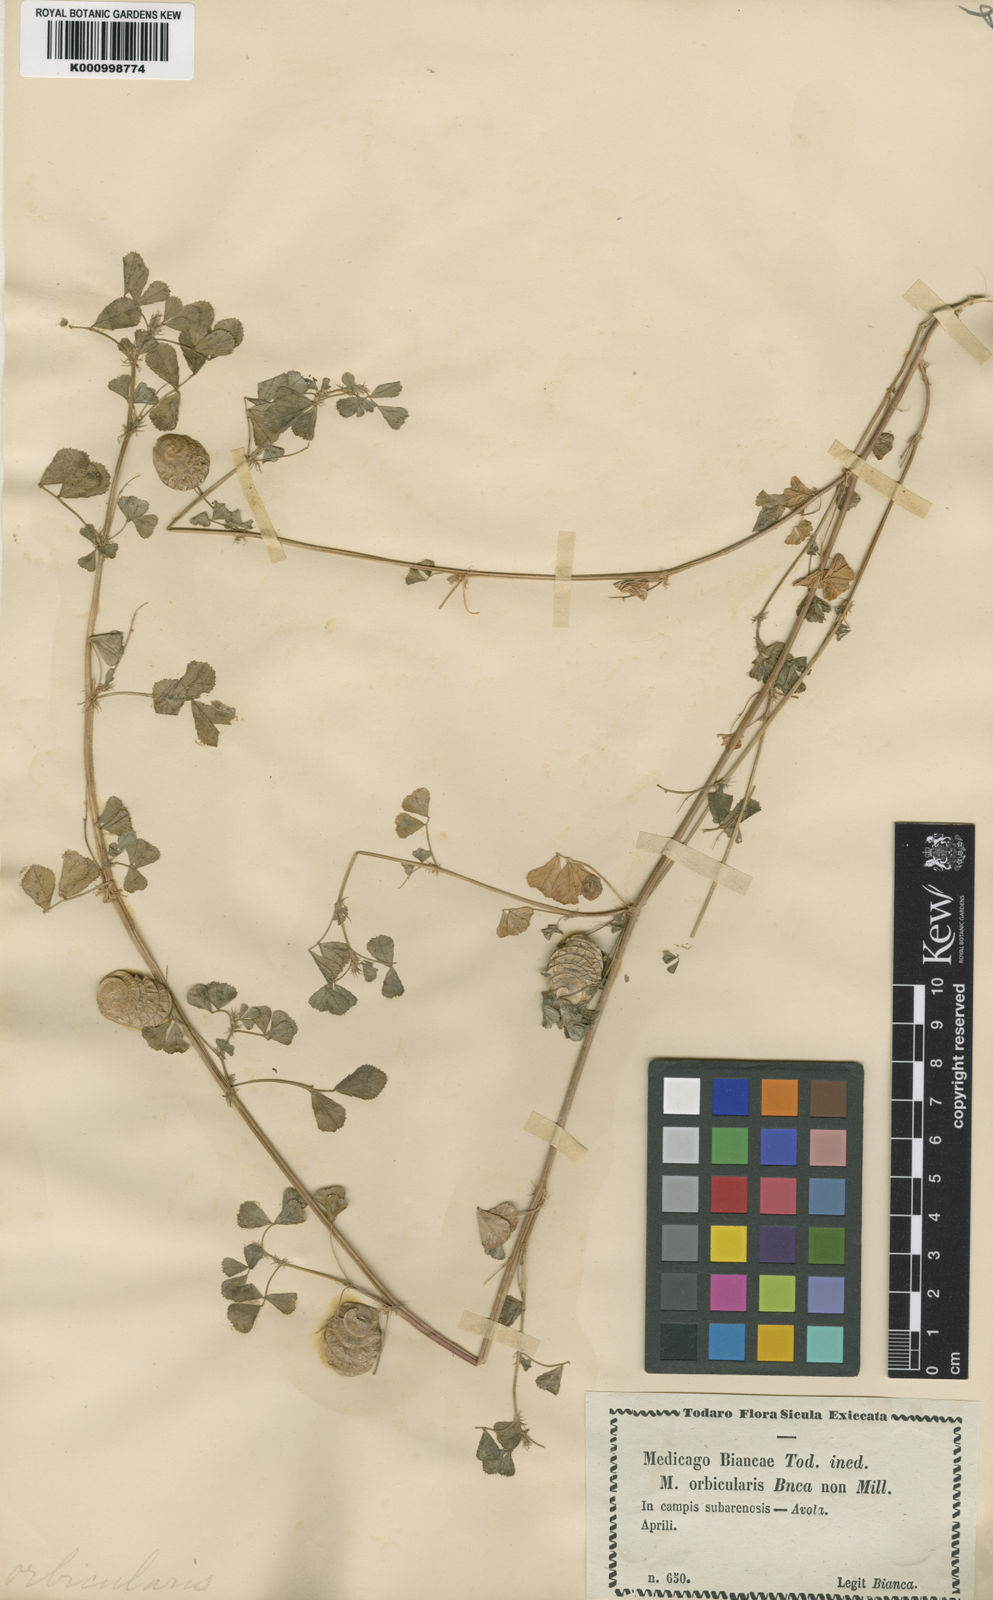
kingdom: Plantae
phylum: Tracheophyta
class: Magnoliopsida
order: Fabales
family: Fabaceae
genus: Medicago
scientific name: Medicago orbicularis
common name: Button medick
